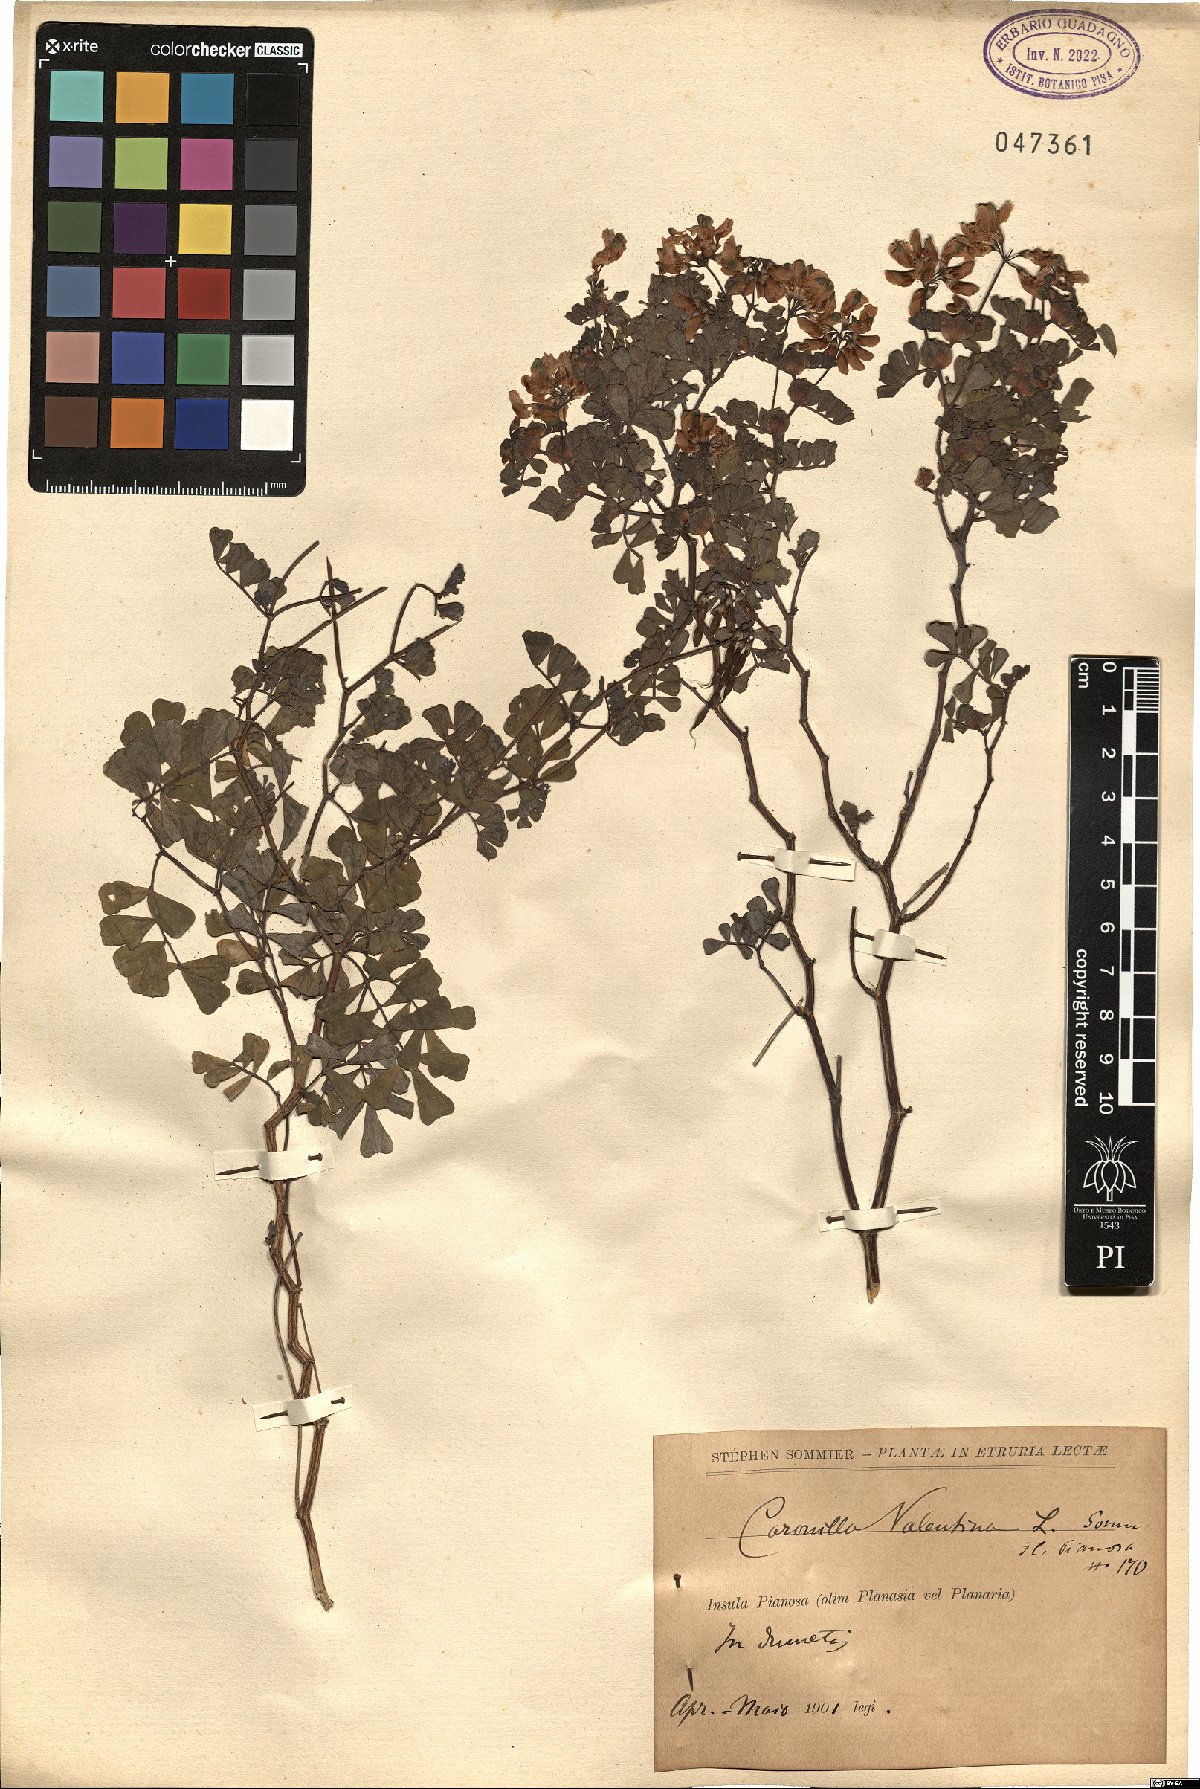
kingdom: Plantae
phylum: Tracheophyta
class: Magnoliopsida
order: Fabales
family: Fabaceae
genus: Coronilla
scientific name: Coronilla valentina
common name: Shrubby scorpion-vetch
